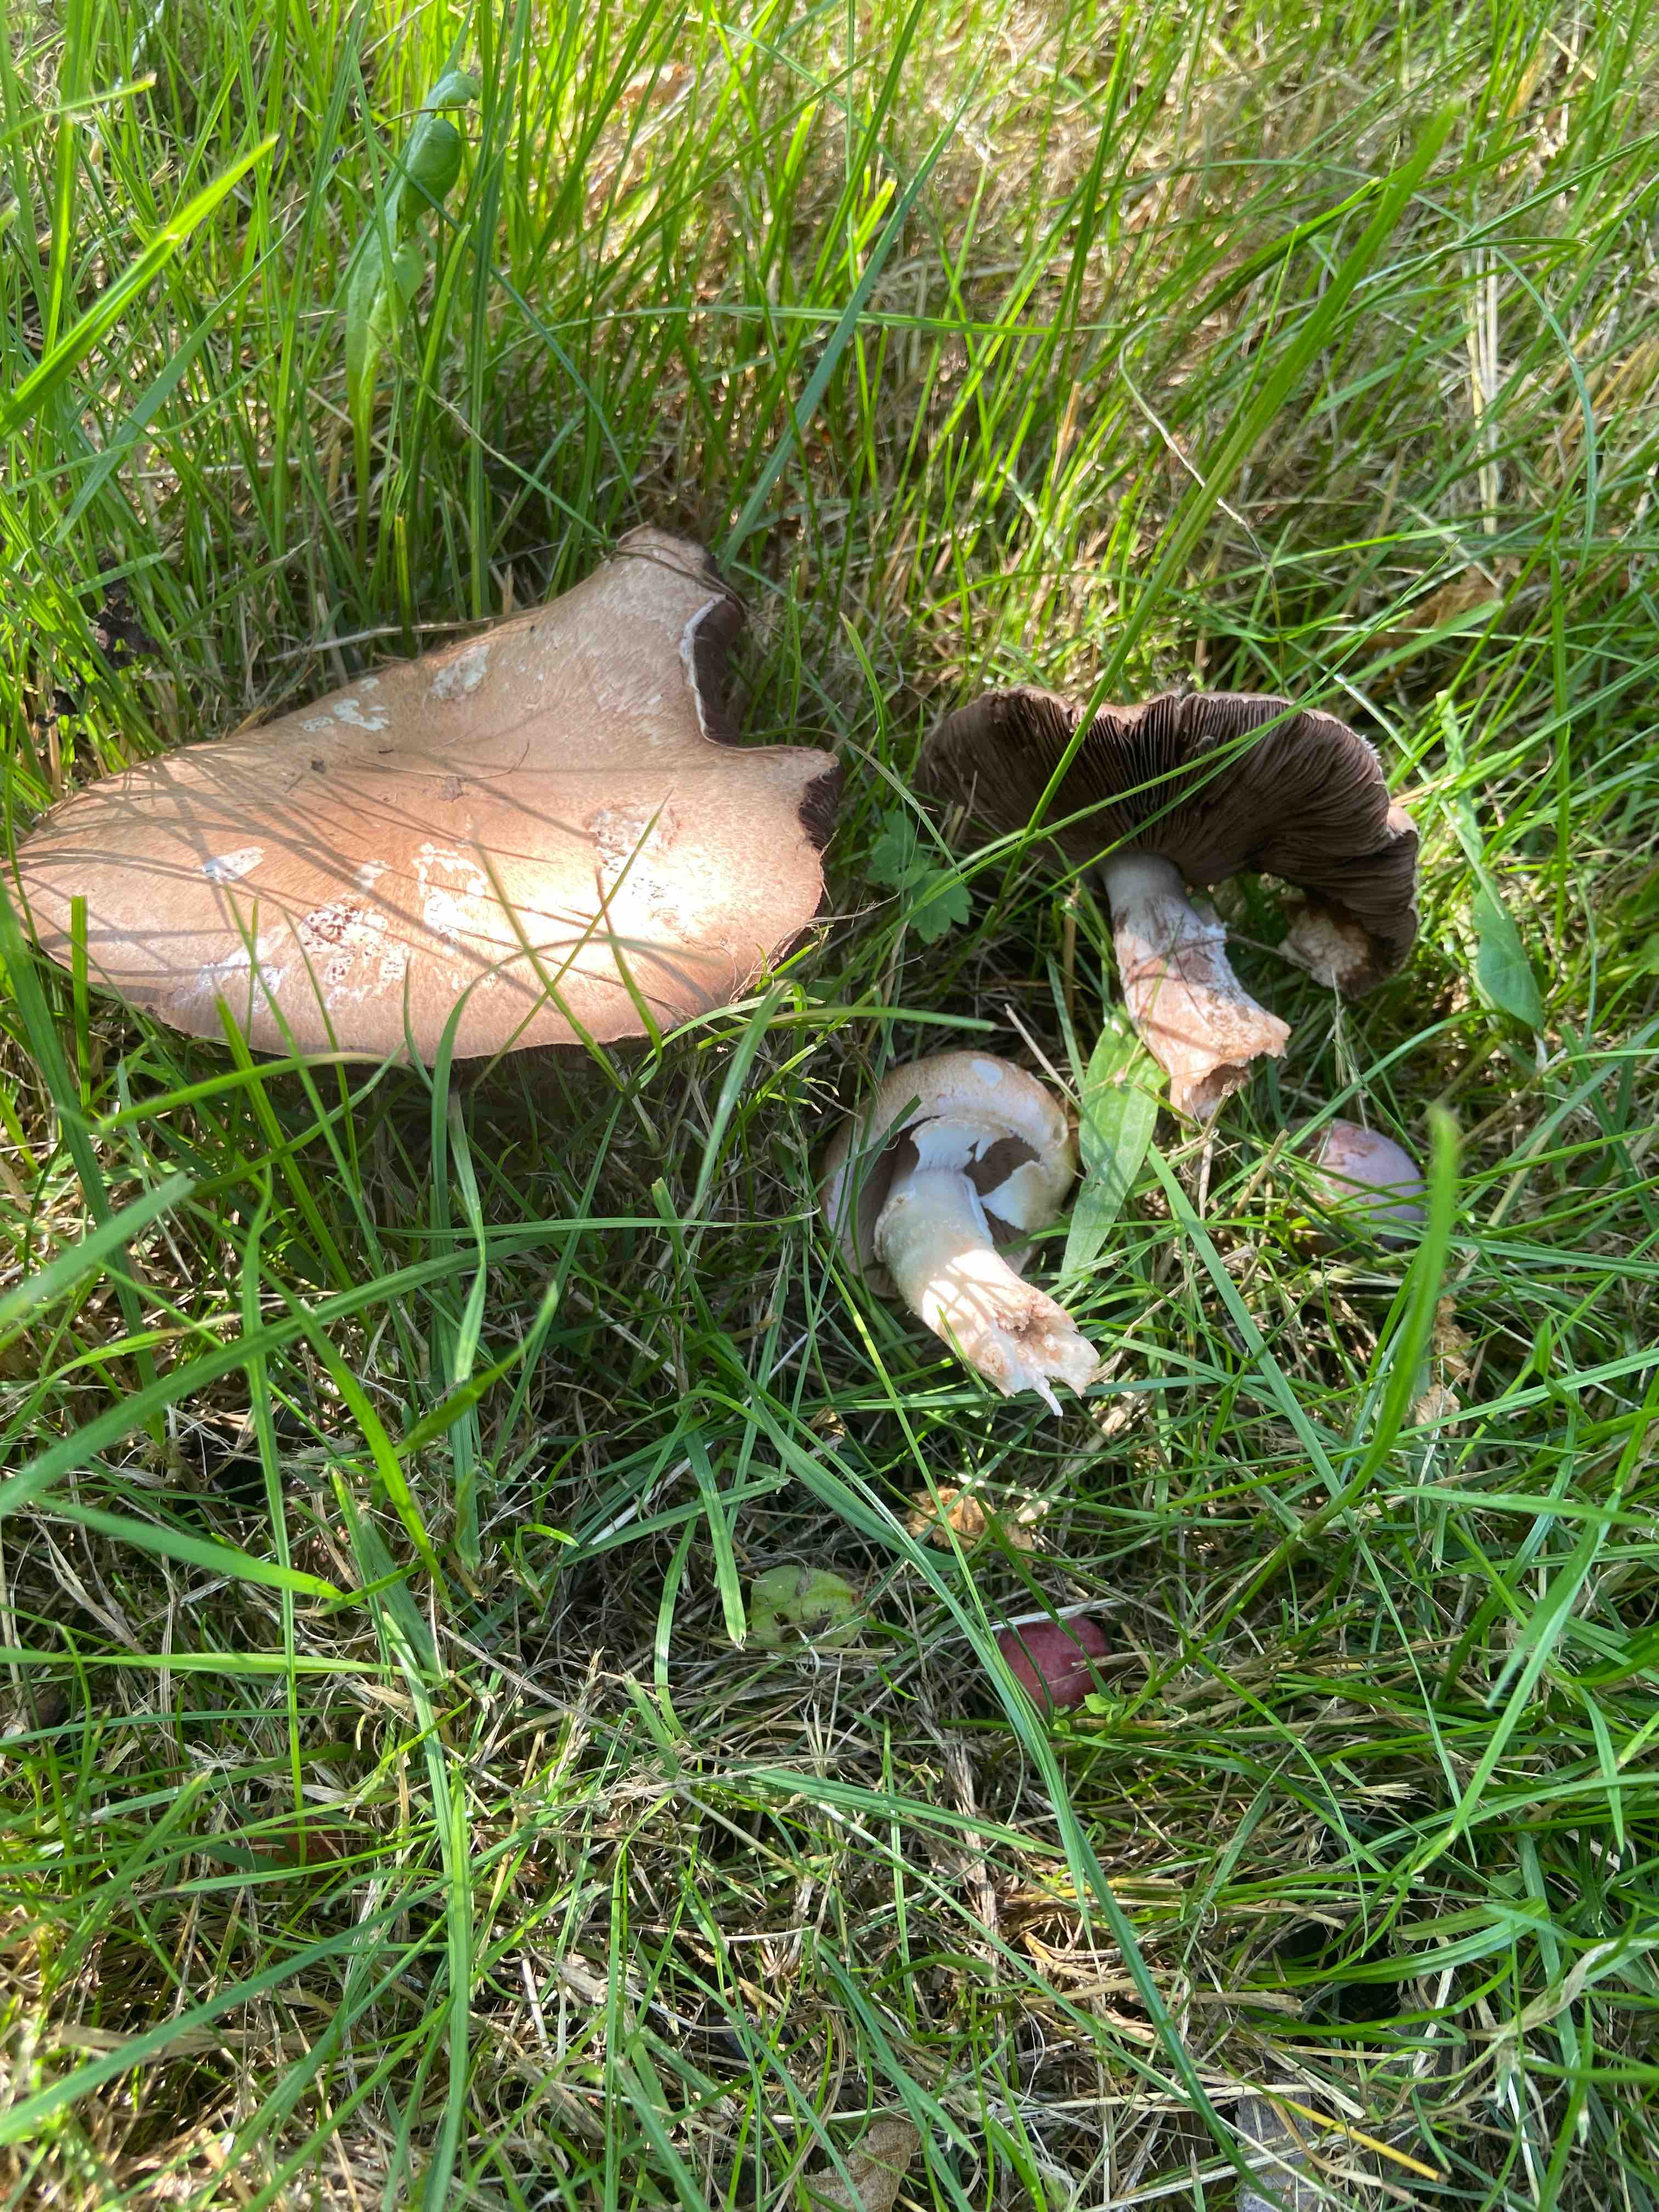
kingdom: Fungi
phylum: Basidiomycota
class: Agaricomycetes
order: Agaricales
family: Agaricaceae
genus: Agaricus
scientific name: Agaricus
